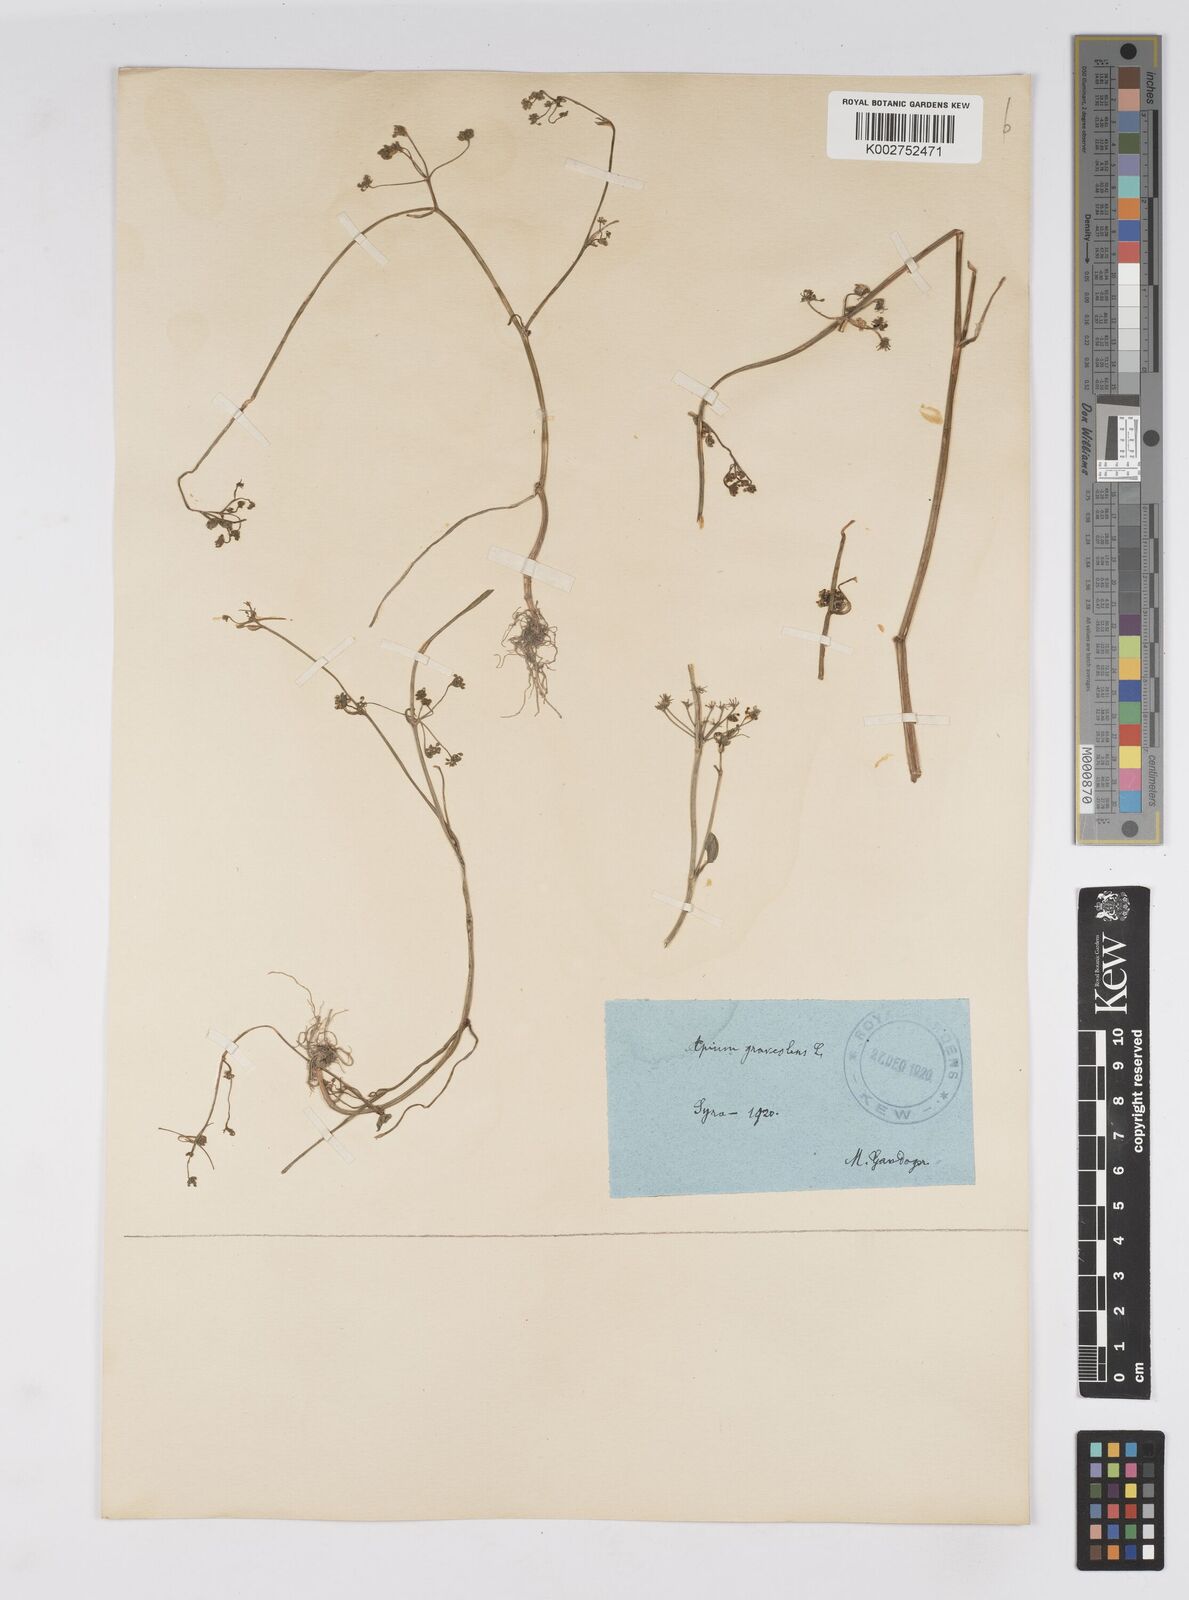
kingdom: Plantae
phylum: Tracheophyta
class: Magnoliopsida
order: Apiales
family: Apiaceae
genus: Apium
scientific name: Apium graveolens
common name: Wild celery
